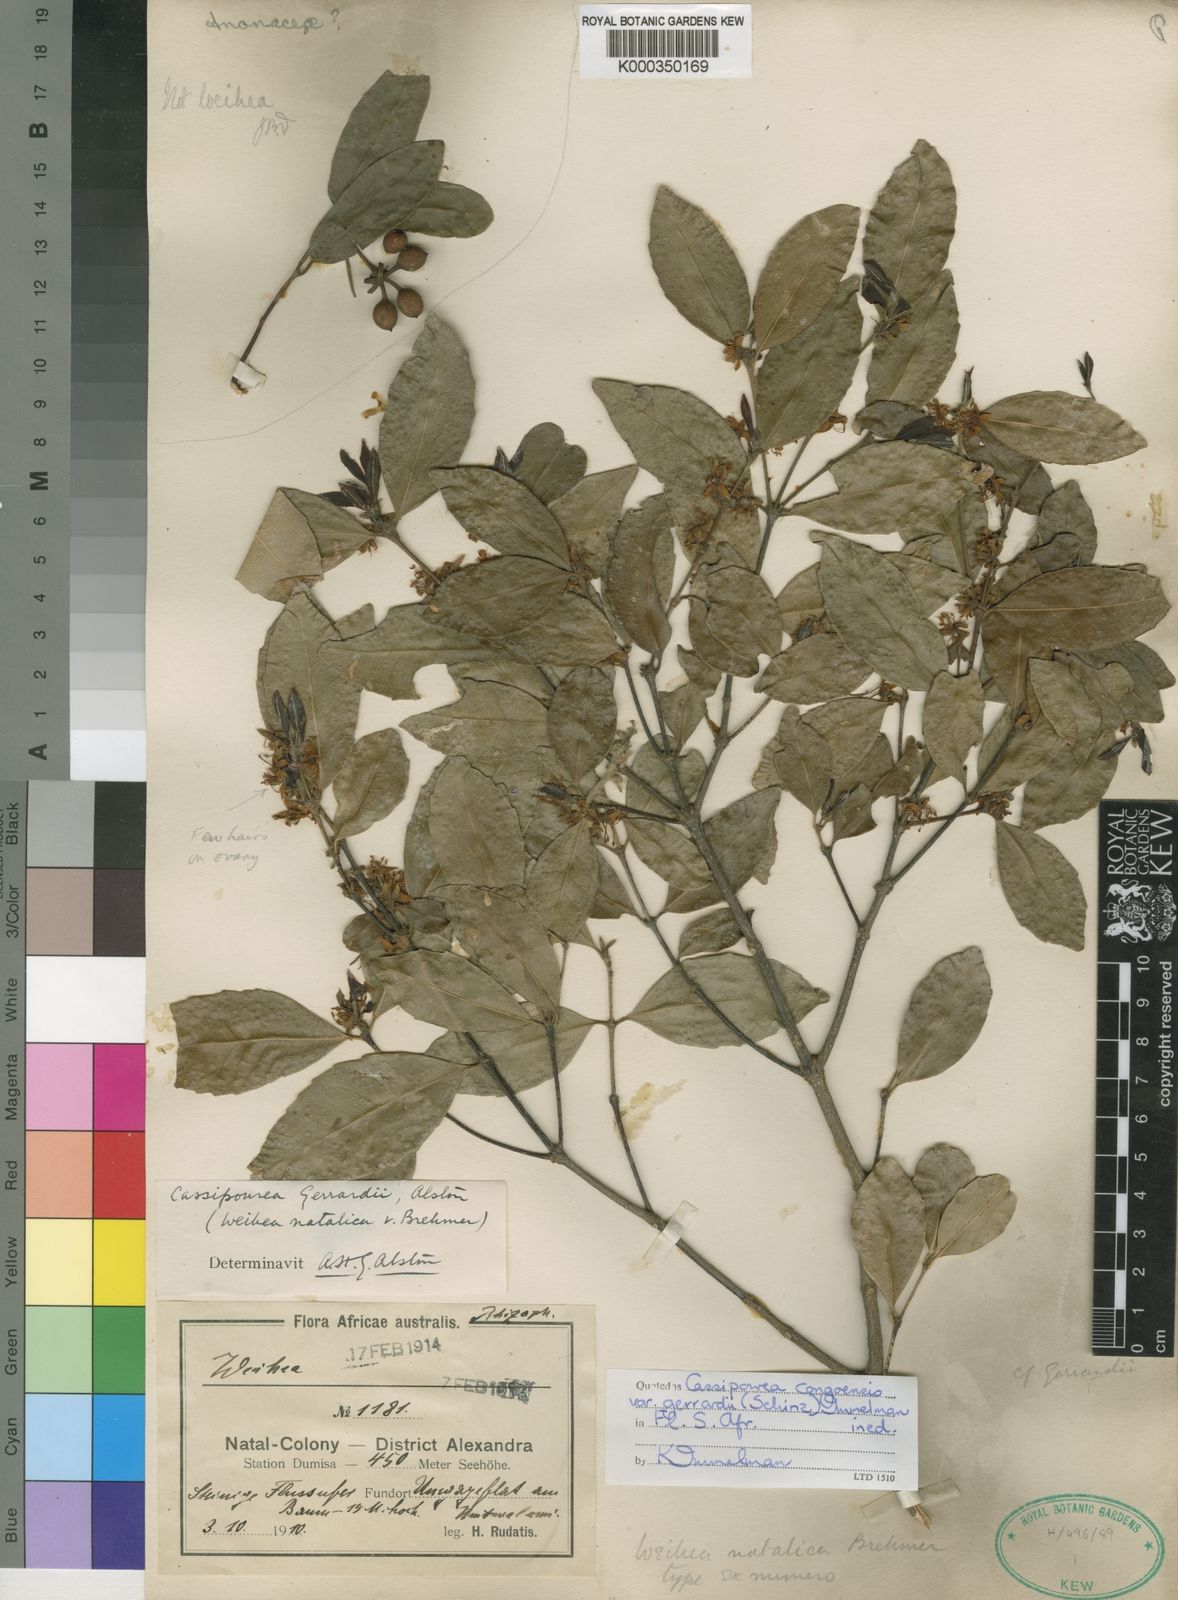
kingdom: Plantae
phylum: Tracheophyta
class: Magnoliopsida
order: Malpighiales
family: Rhizophoraceae
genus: Cassipourea
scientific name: Cassipourea malosana
